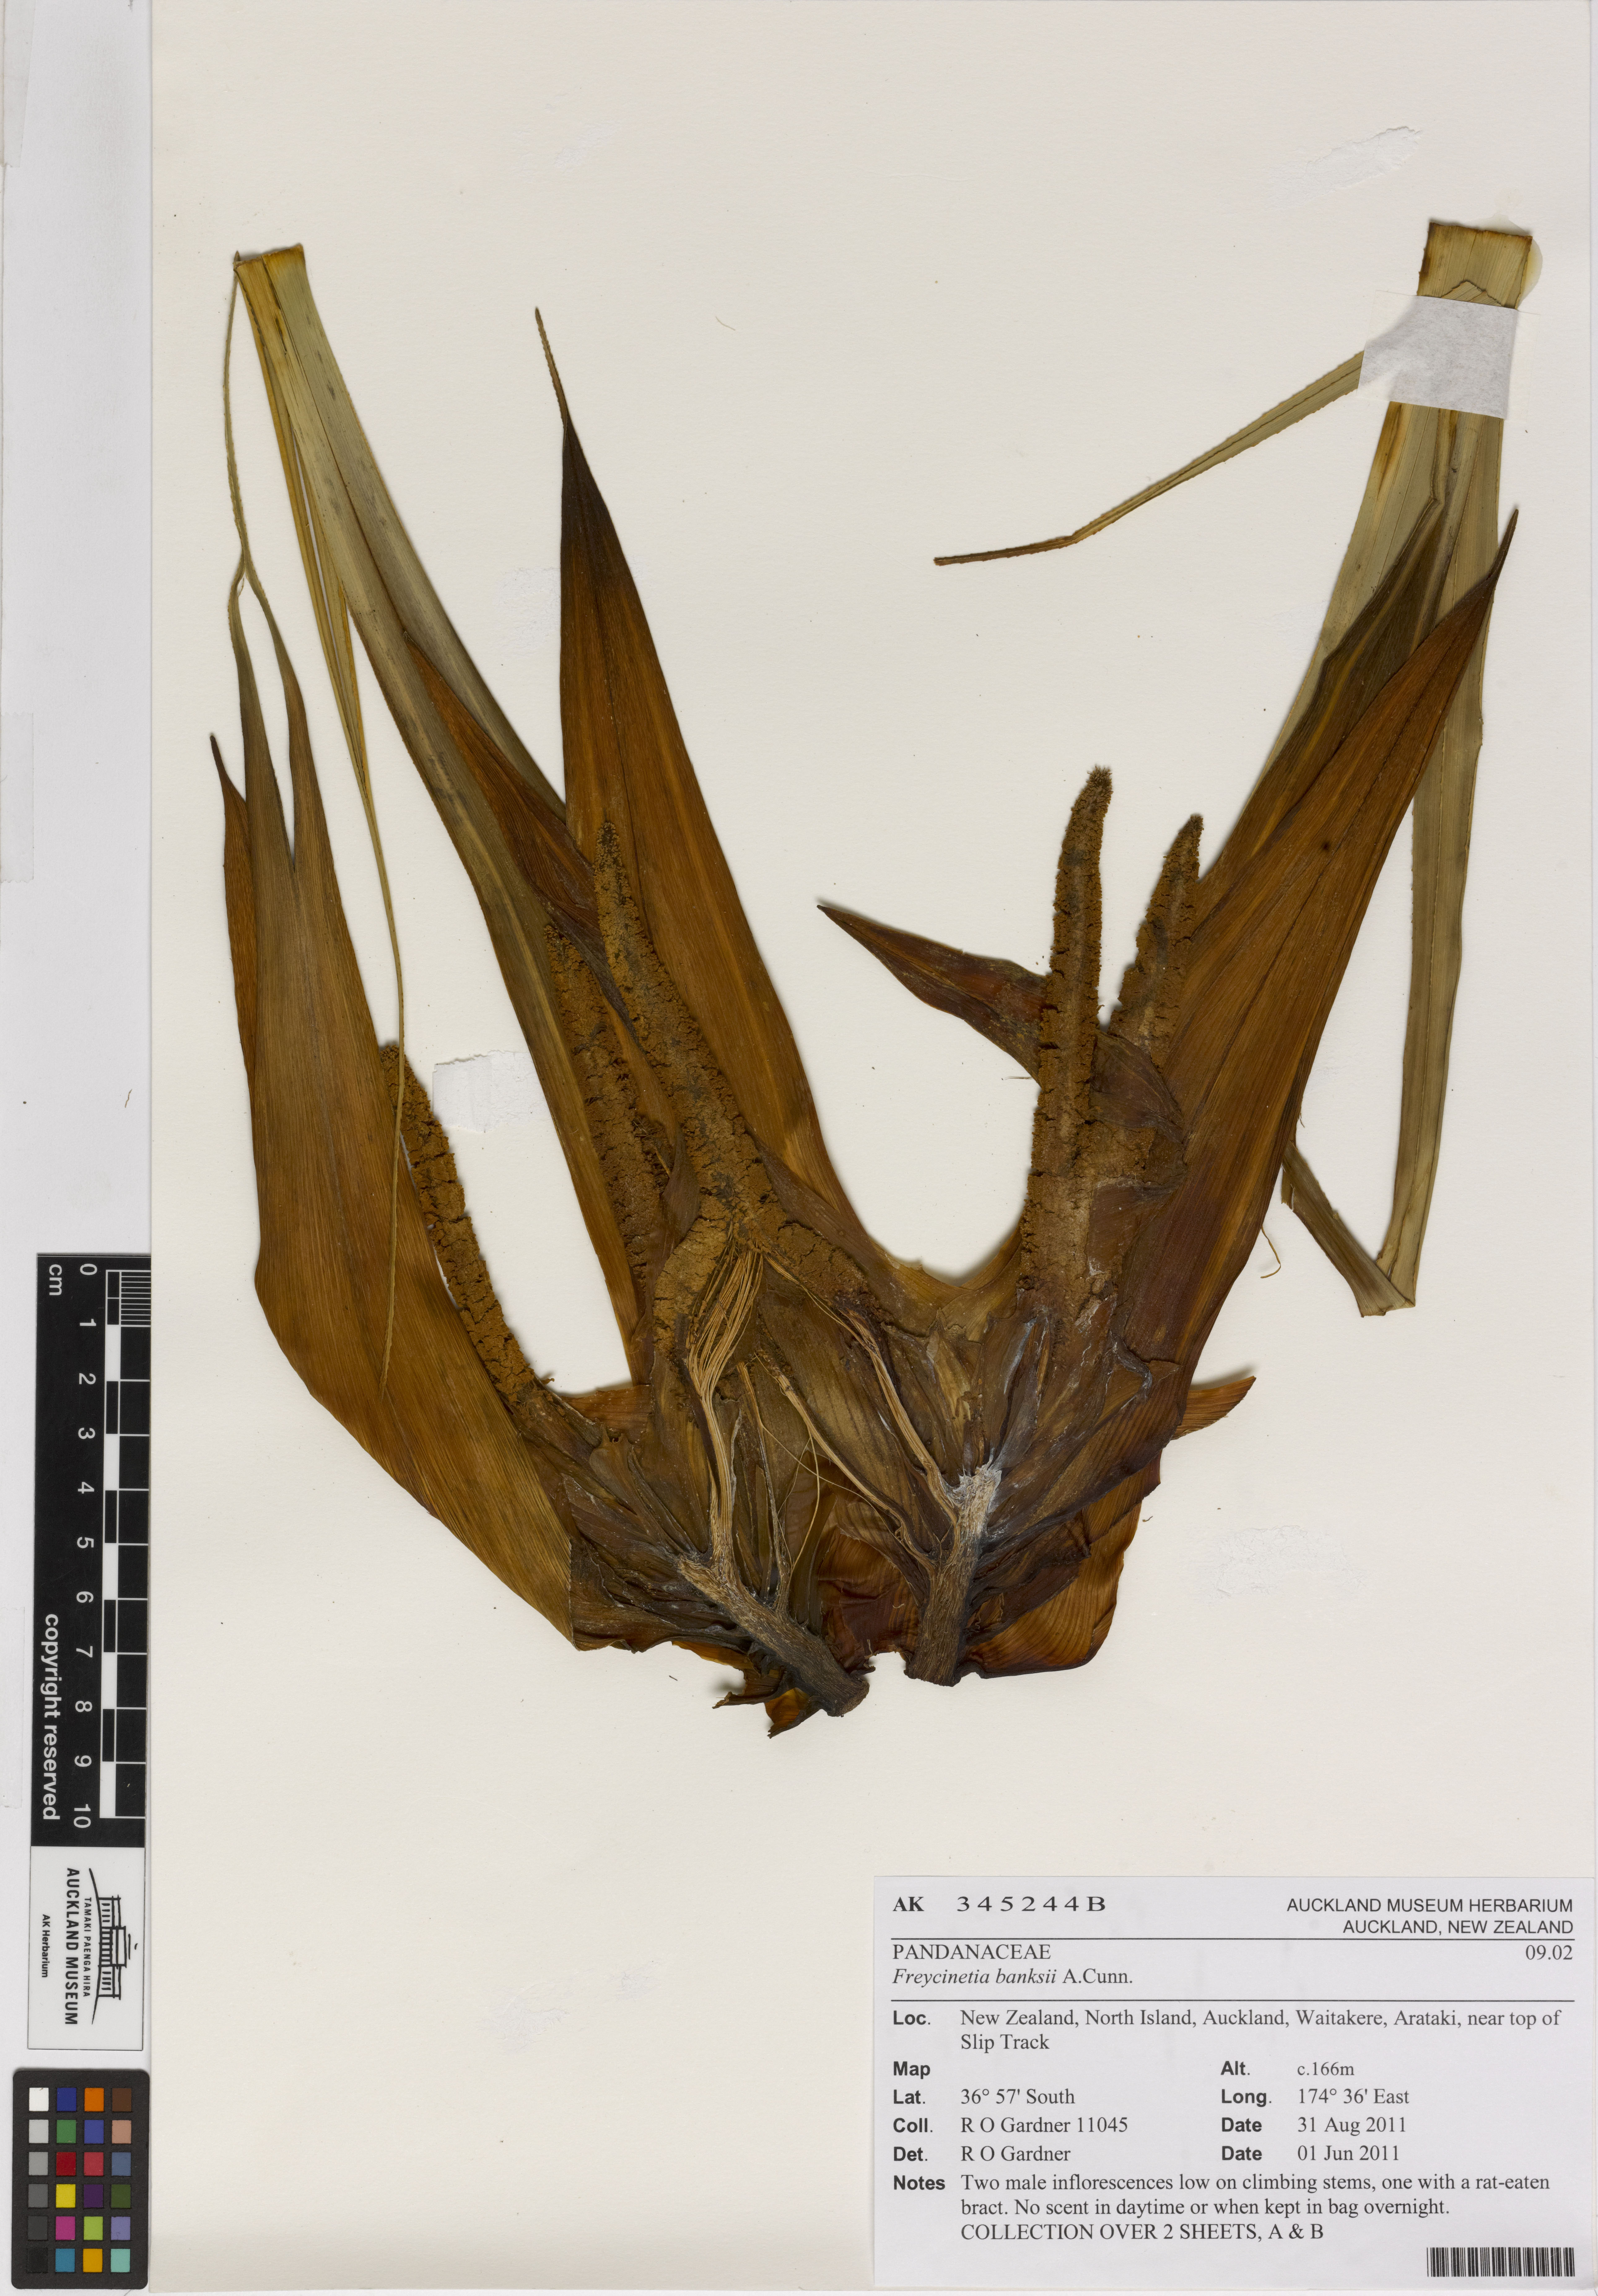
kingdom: Plantae
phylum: Tracheophyta
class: Liliopsida
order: Pandanales
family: Pandanaceae
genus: Freycinetia
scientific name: Freycinetia banksii
